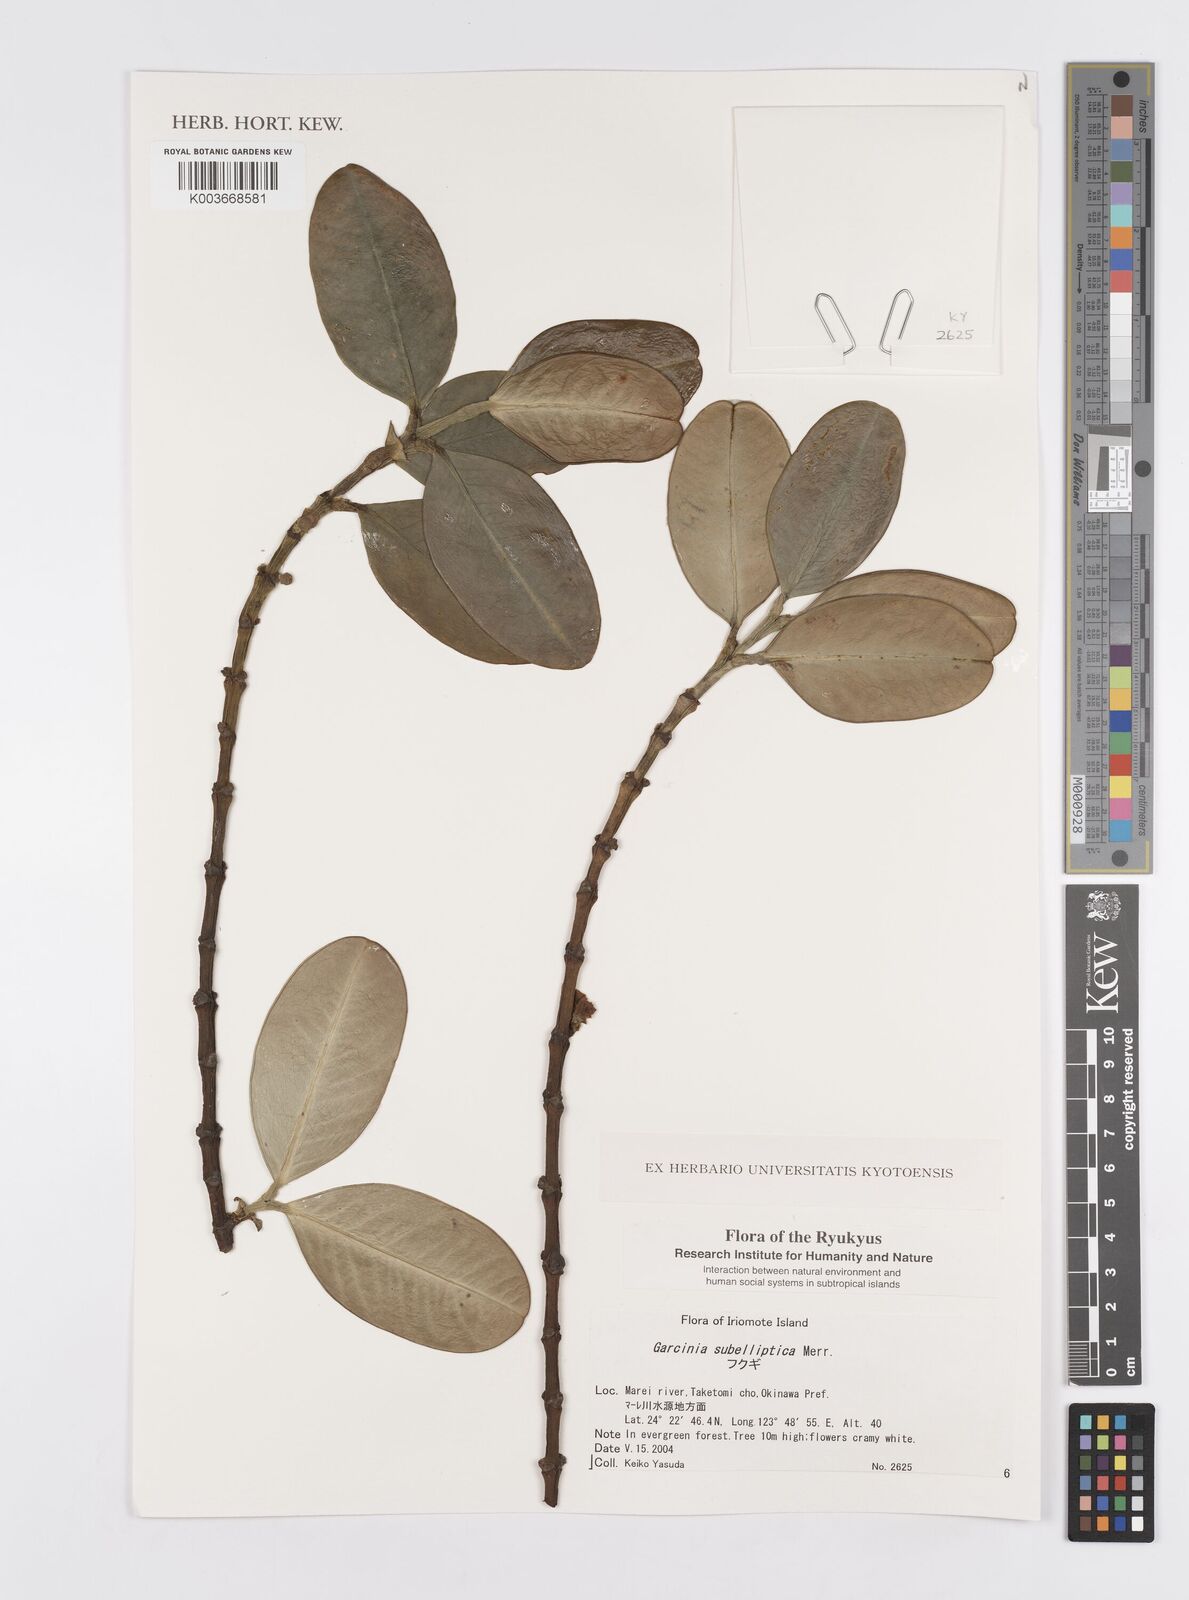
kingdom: Plantae
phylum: Tracheophyta
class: Magnoliopsida
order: Malpighiales
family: Clusiaceae
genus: Garcinia
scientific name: Garcinia subelliptica
